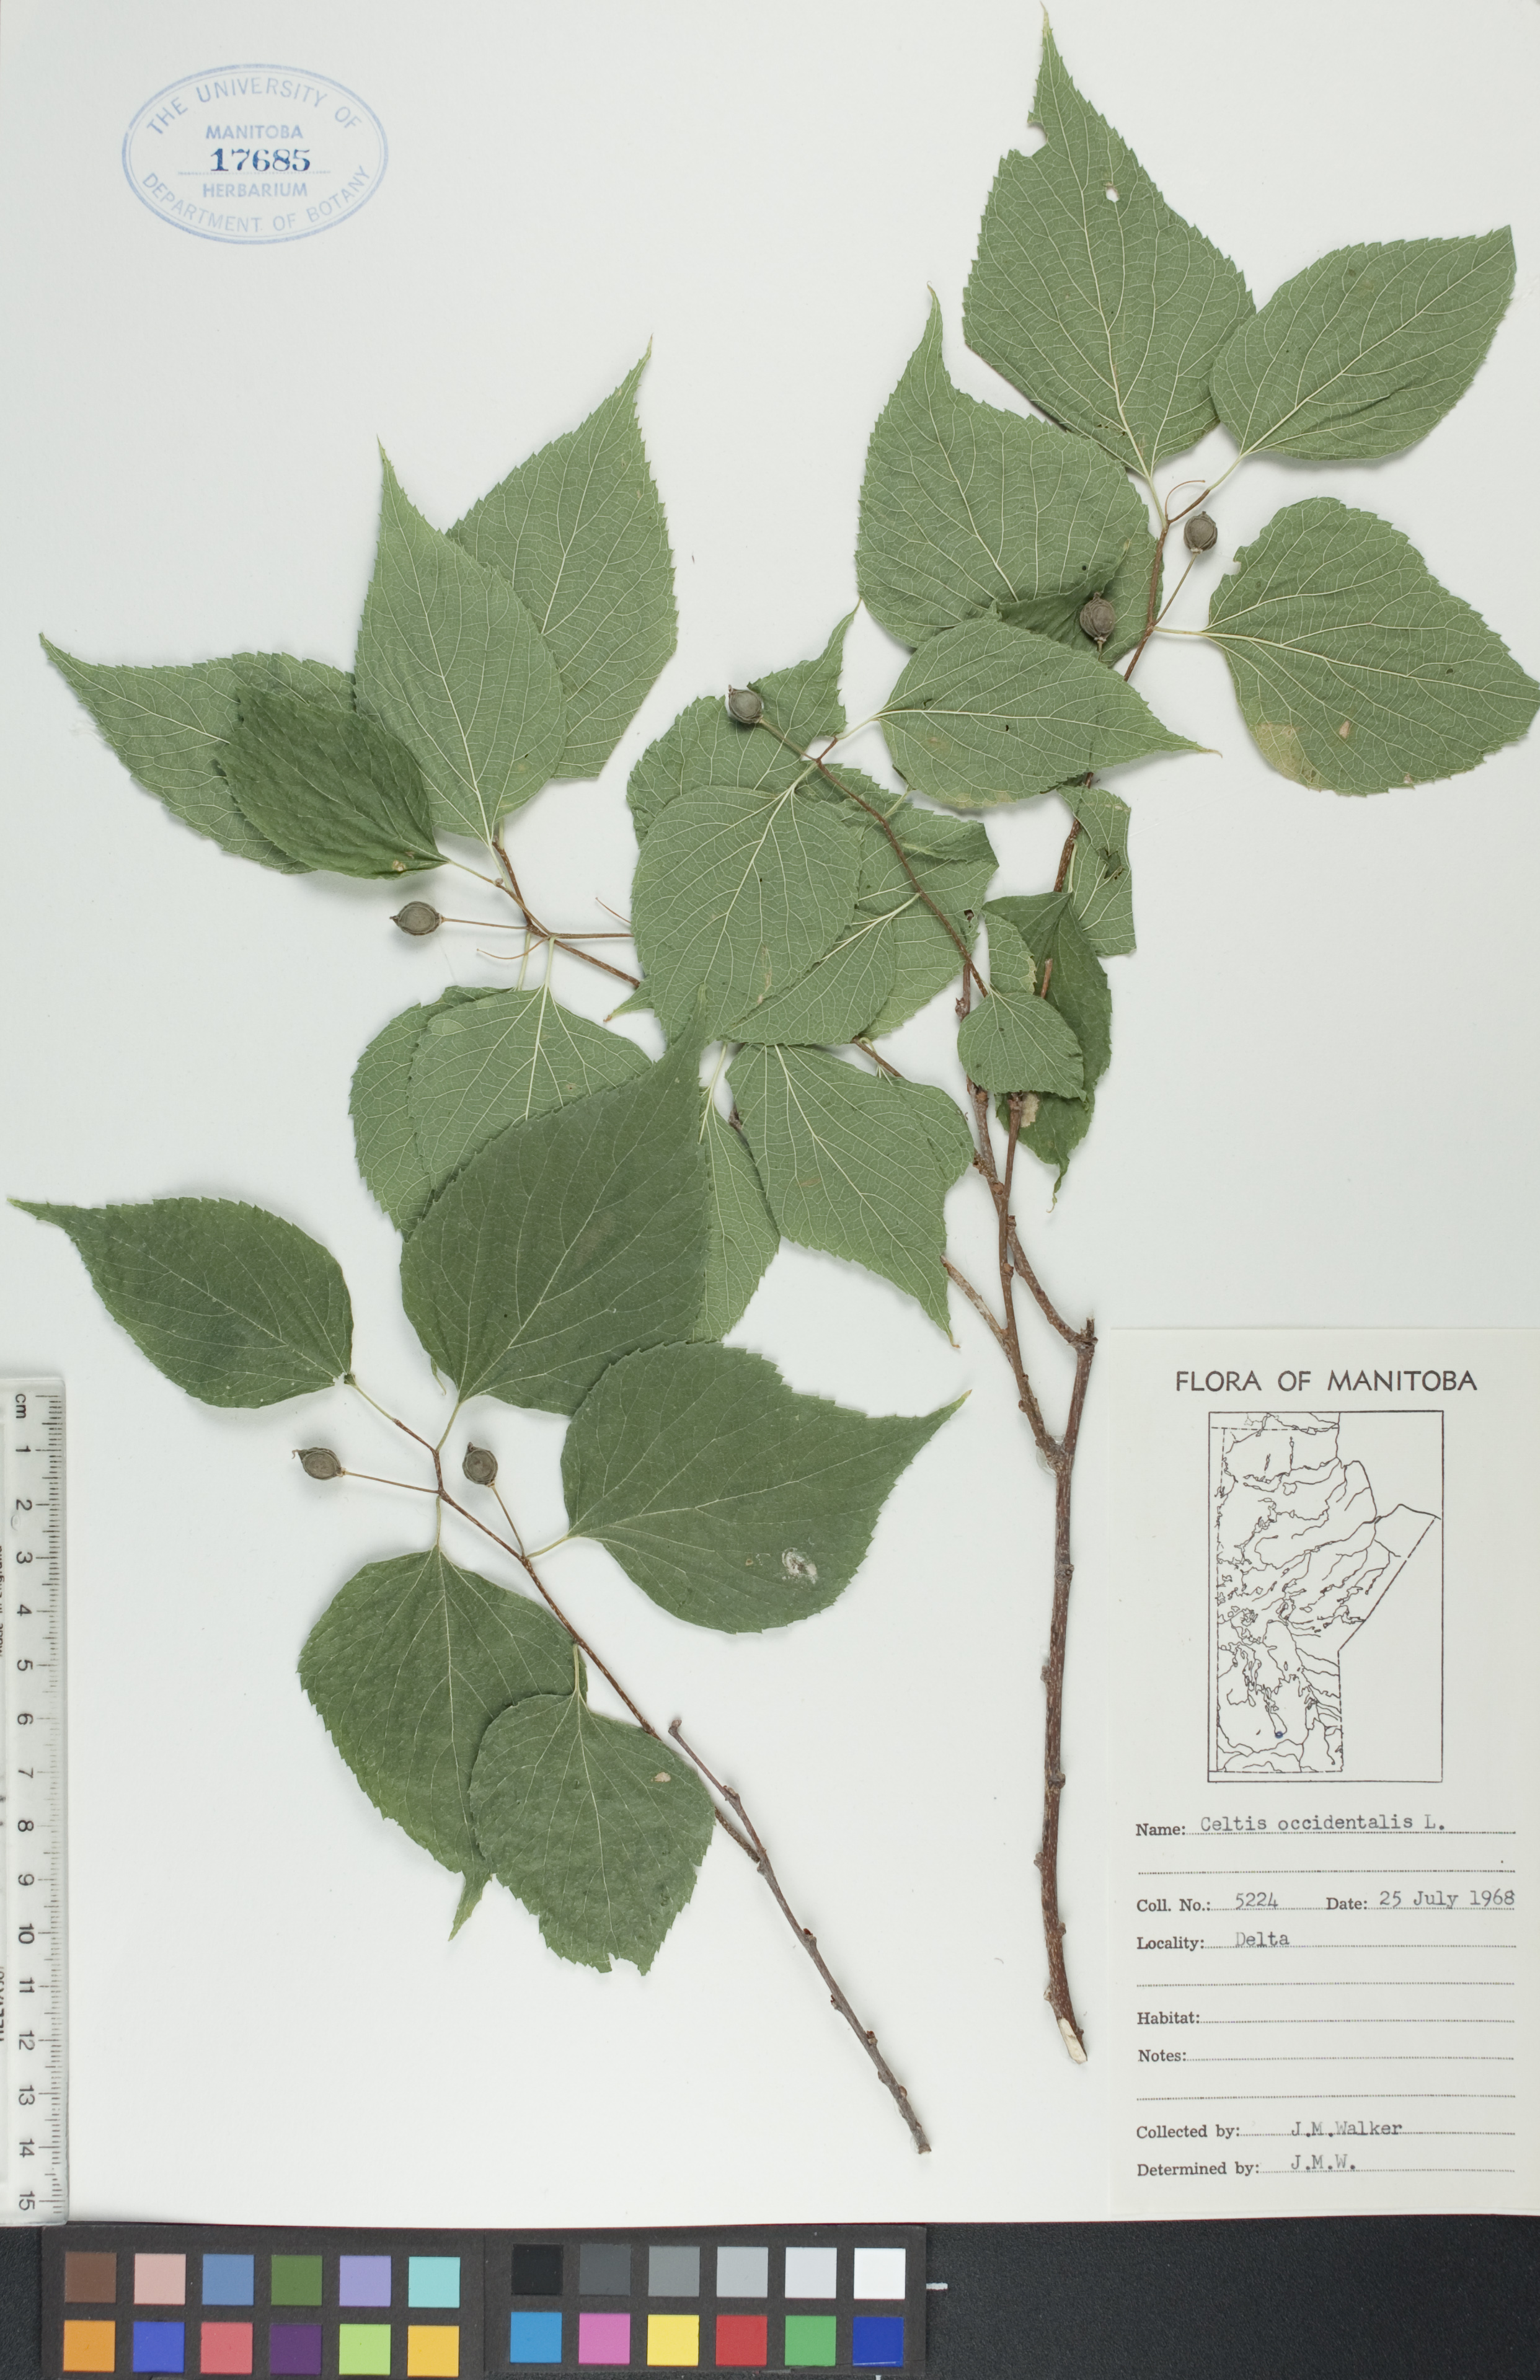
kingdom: Plantae
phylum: Tracheophyta
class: Magnoliopsida
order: Rosales
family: Cannabaceae
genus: Celtis
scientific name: Celtis occidentalis
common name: Common hackberry
